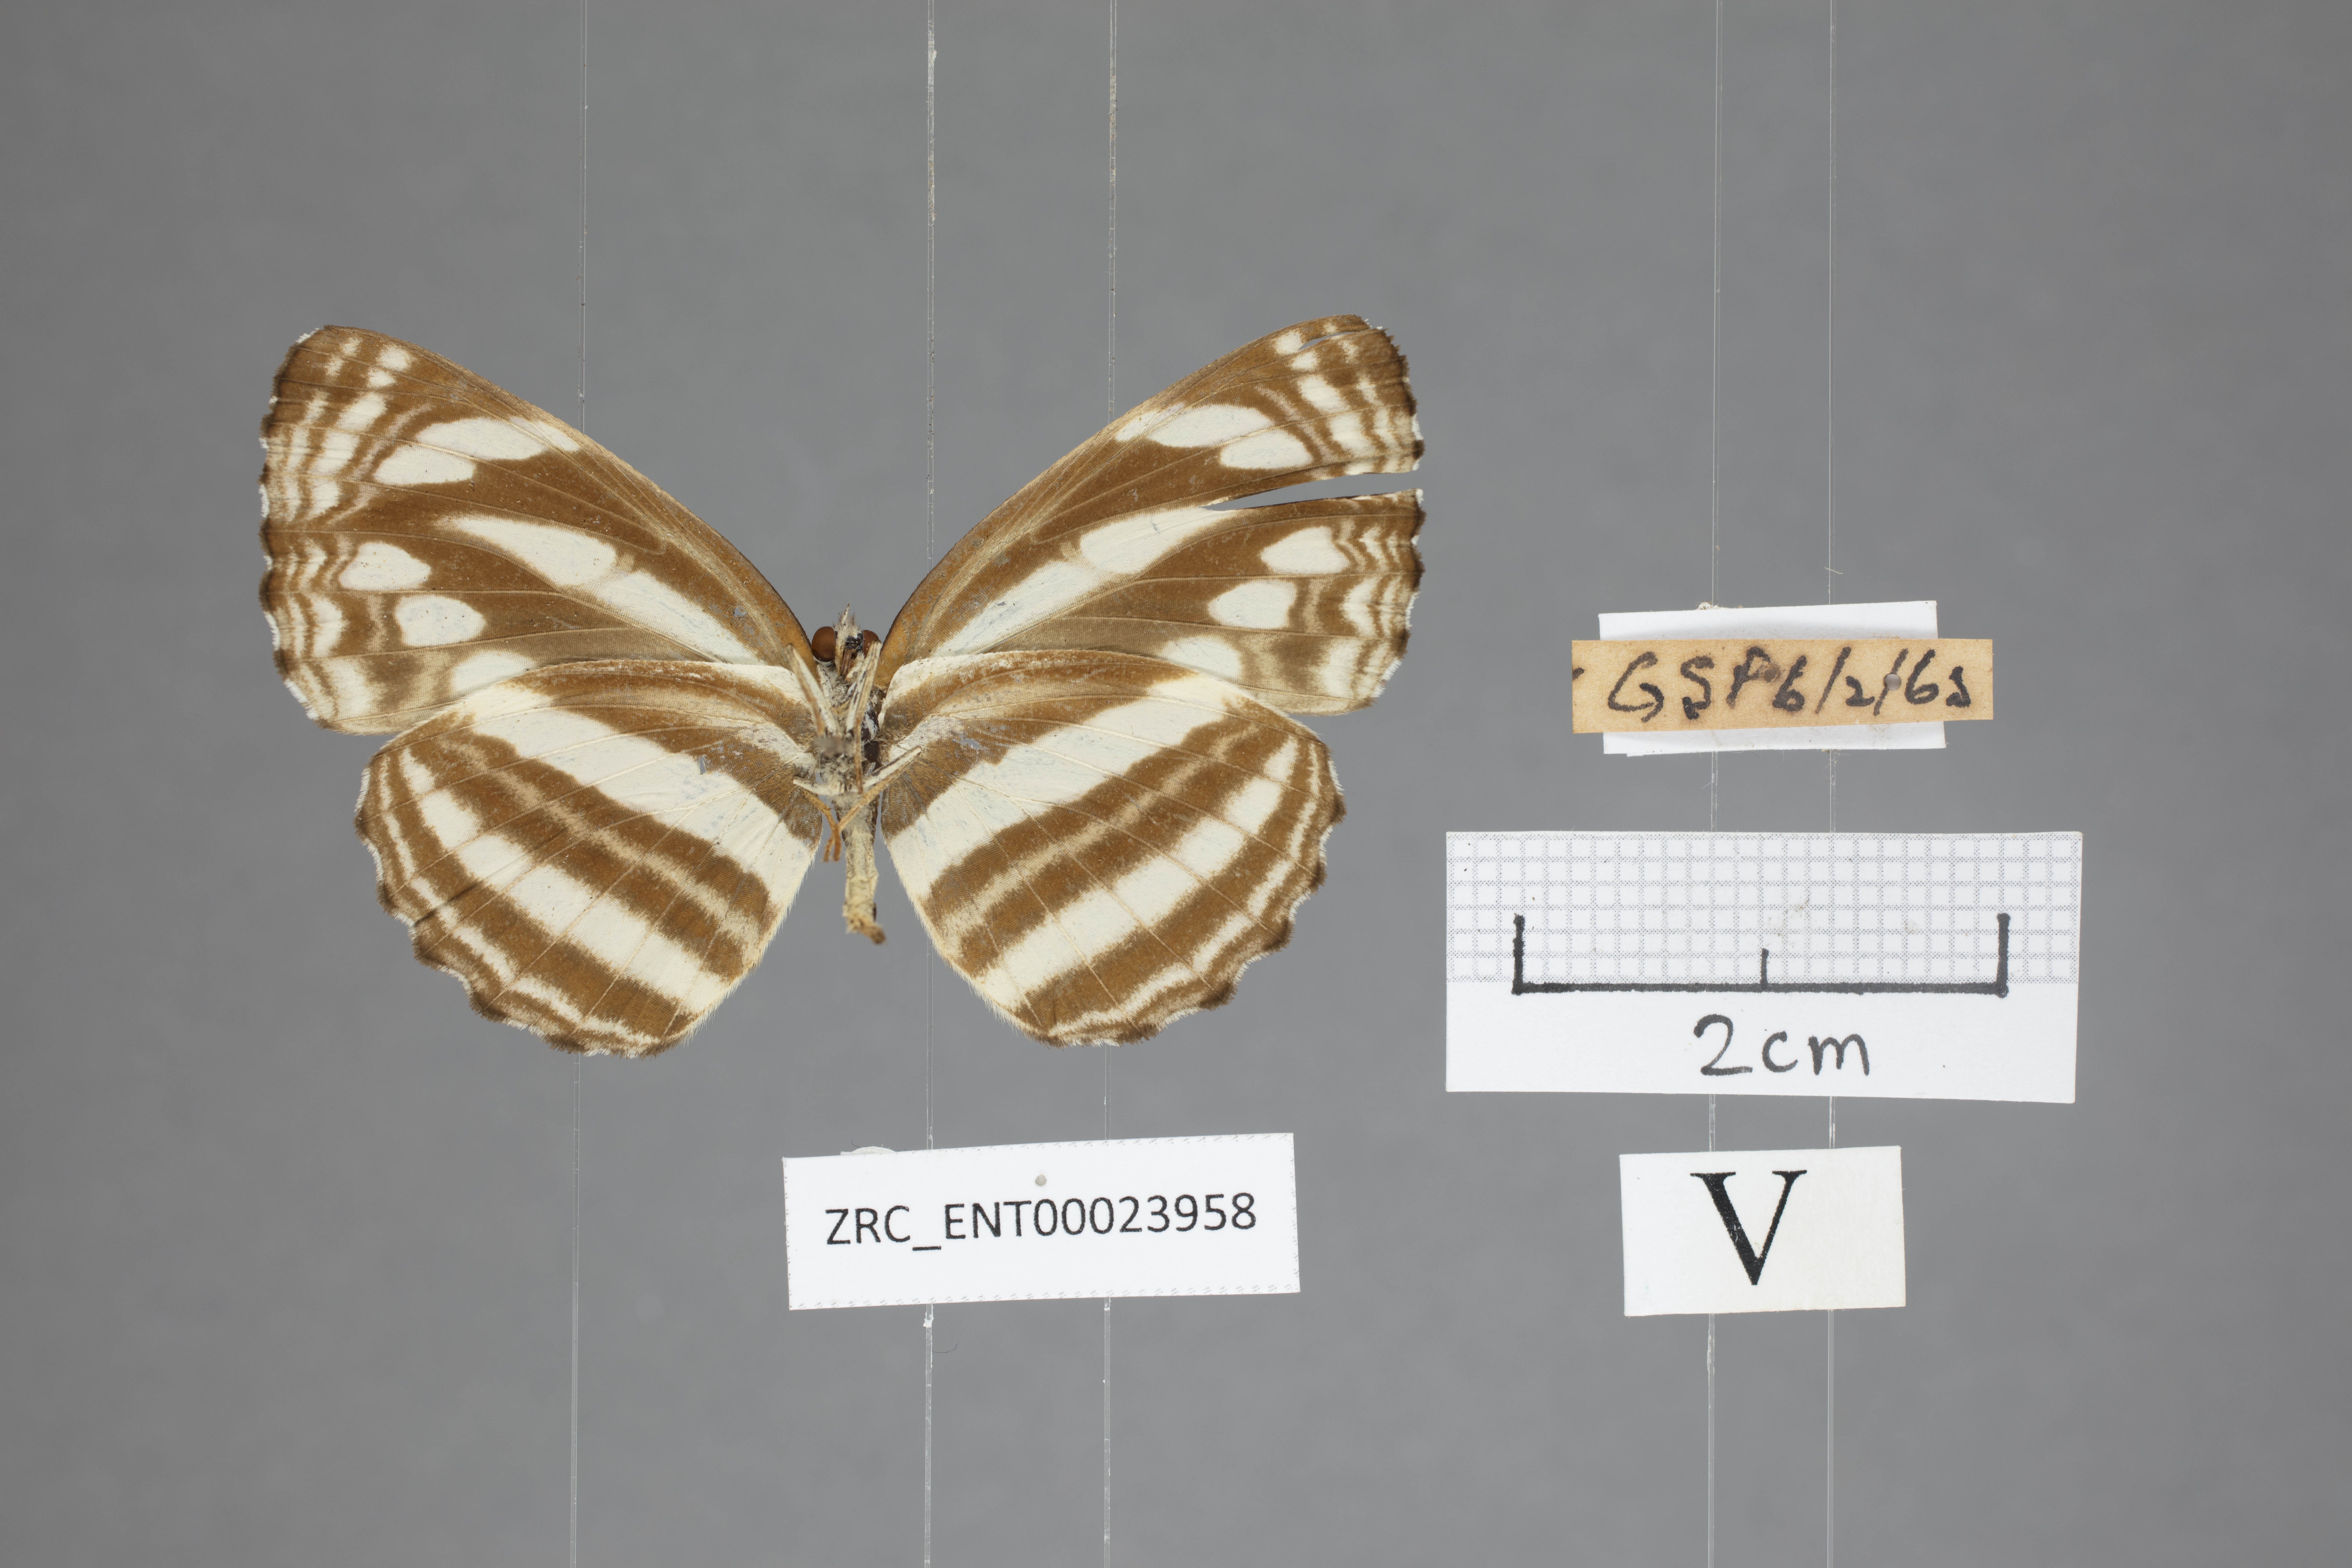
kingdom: Animalia
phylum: Arthropoda
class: Insecta
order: Lepidoptera
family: Nymphalidae
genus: Neptis
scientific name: Neptis clinia
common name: Southern sullied sailer
